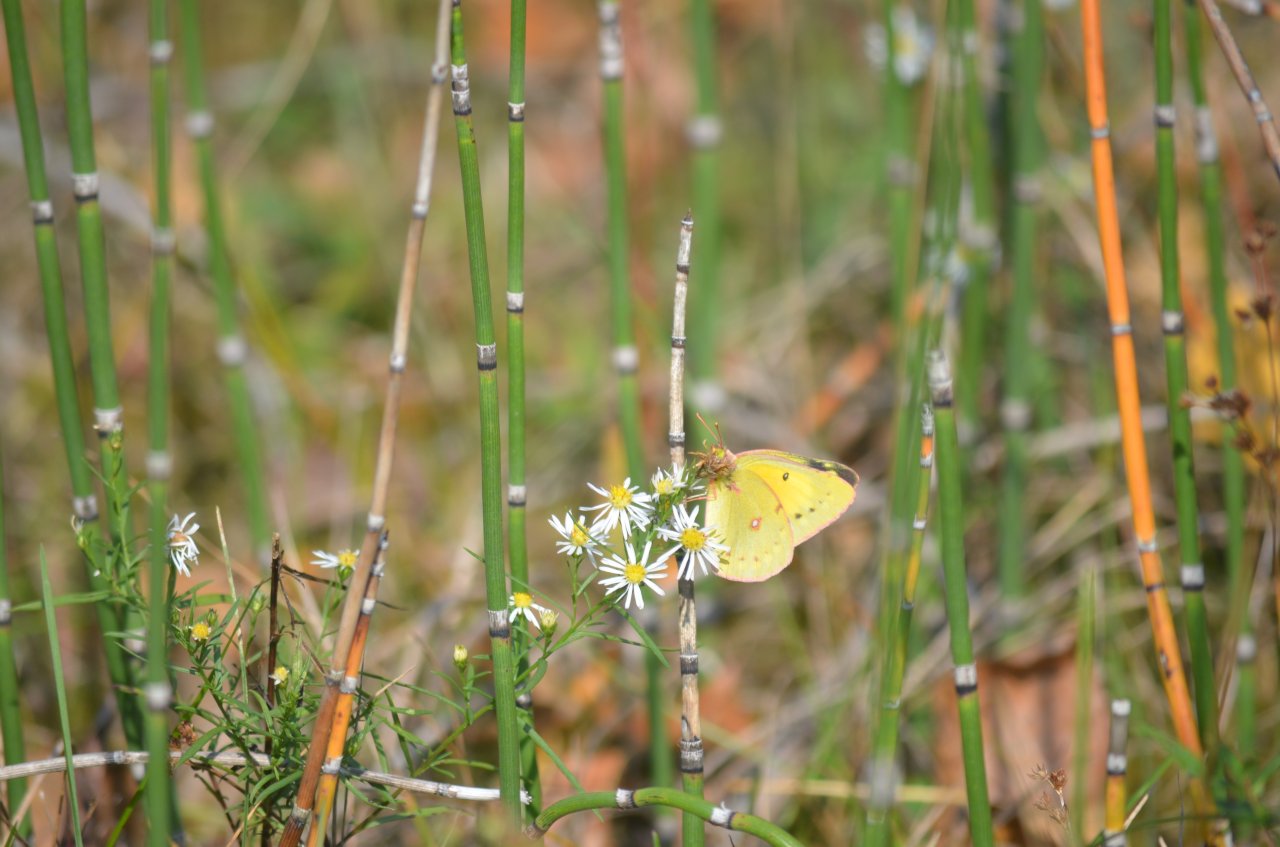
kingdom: Animalia
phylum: Arthropoda
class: Insecta
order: Lepidoptera
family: Pieridae
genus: Colias
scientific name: Colias eurytheme
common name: Orange Sulphur
